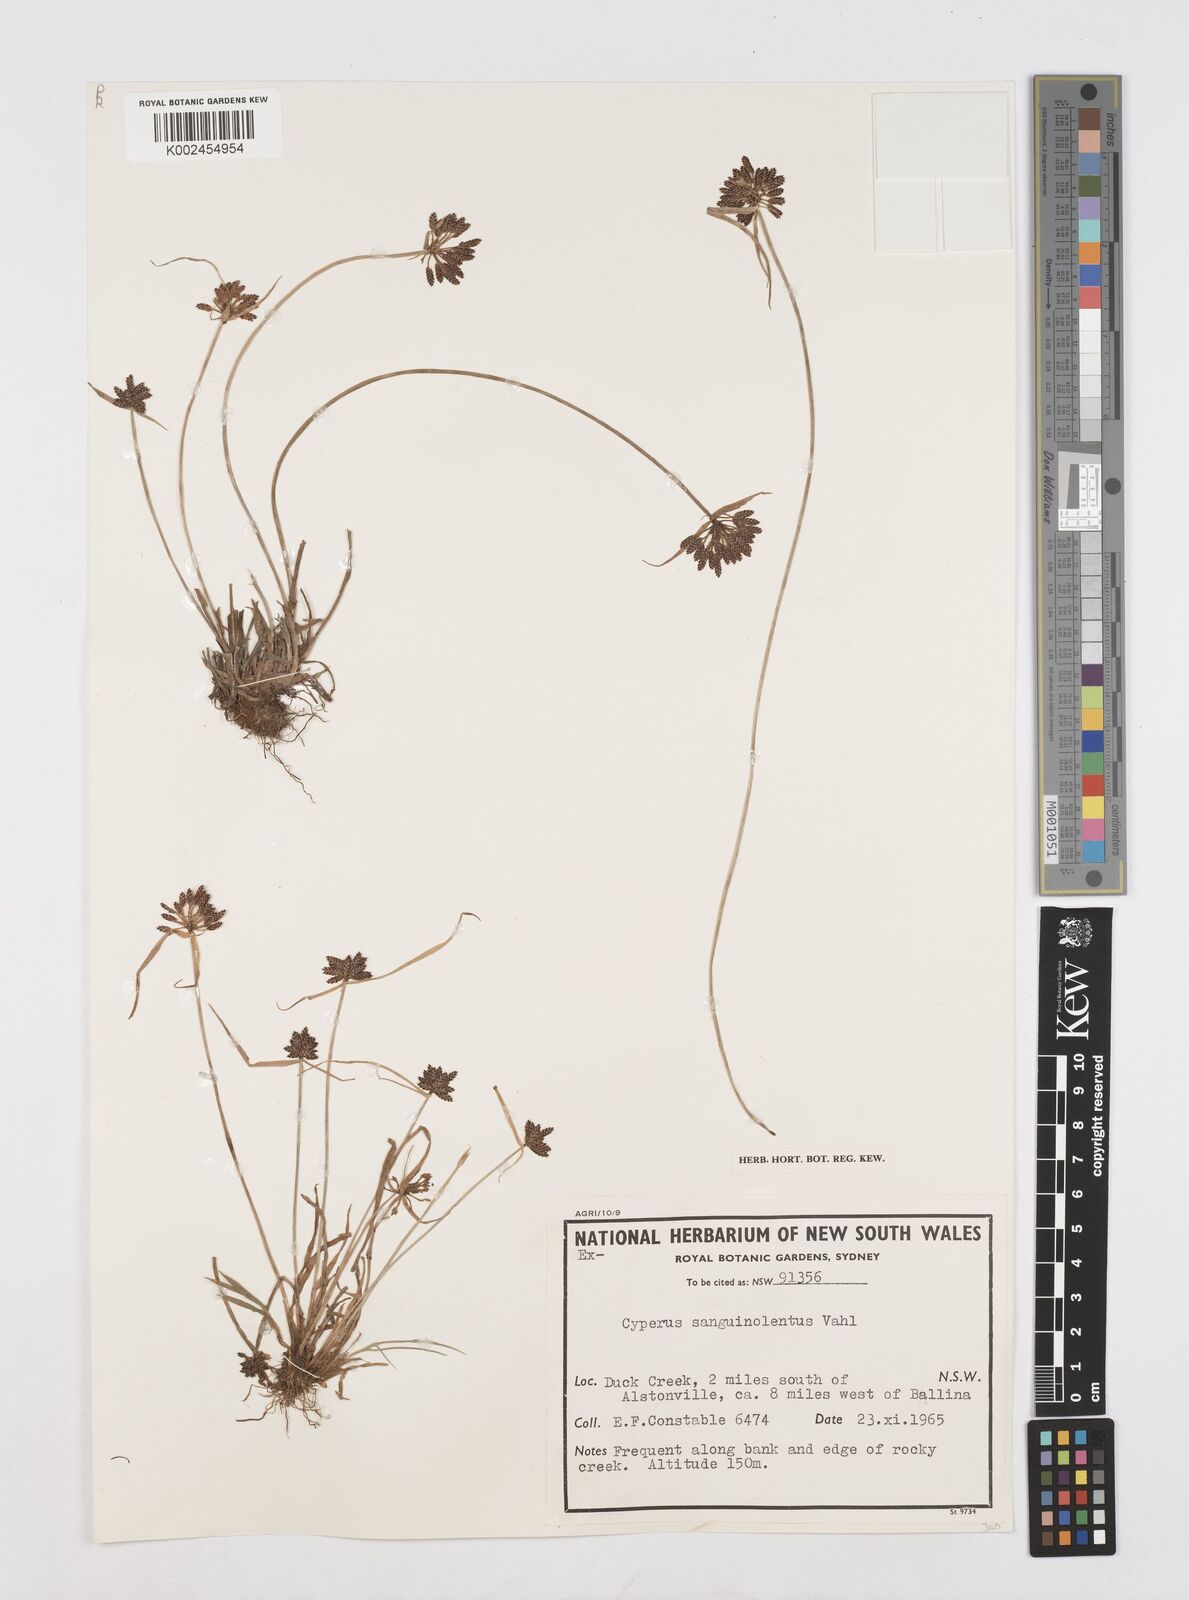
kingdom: Plantae
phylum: Tracheophyta
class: Liliopsida
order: Poales
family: Cyperaceae
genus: Cyperus
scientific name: Cyperus sanguinolentus
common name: Purpleglume flatsedge
